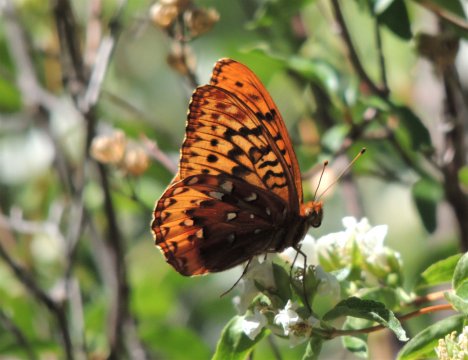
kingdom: Animalia
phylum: Arthropoda
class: Insecta
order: Lepidoptera
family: Nymphalidae
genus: Speyeria
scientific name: Speyeria cybele
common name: Great Spangled Fritillary
